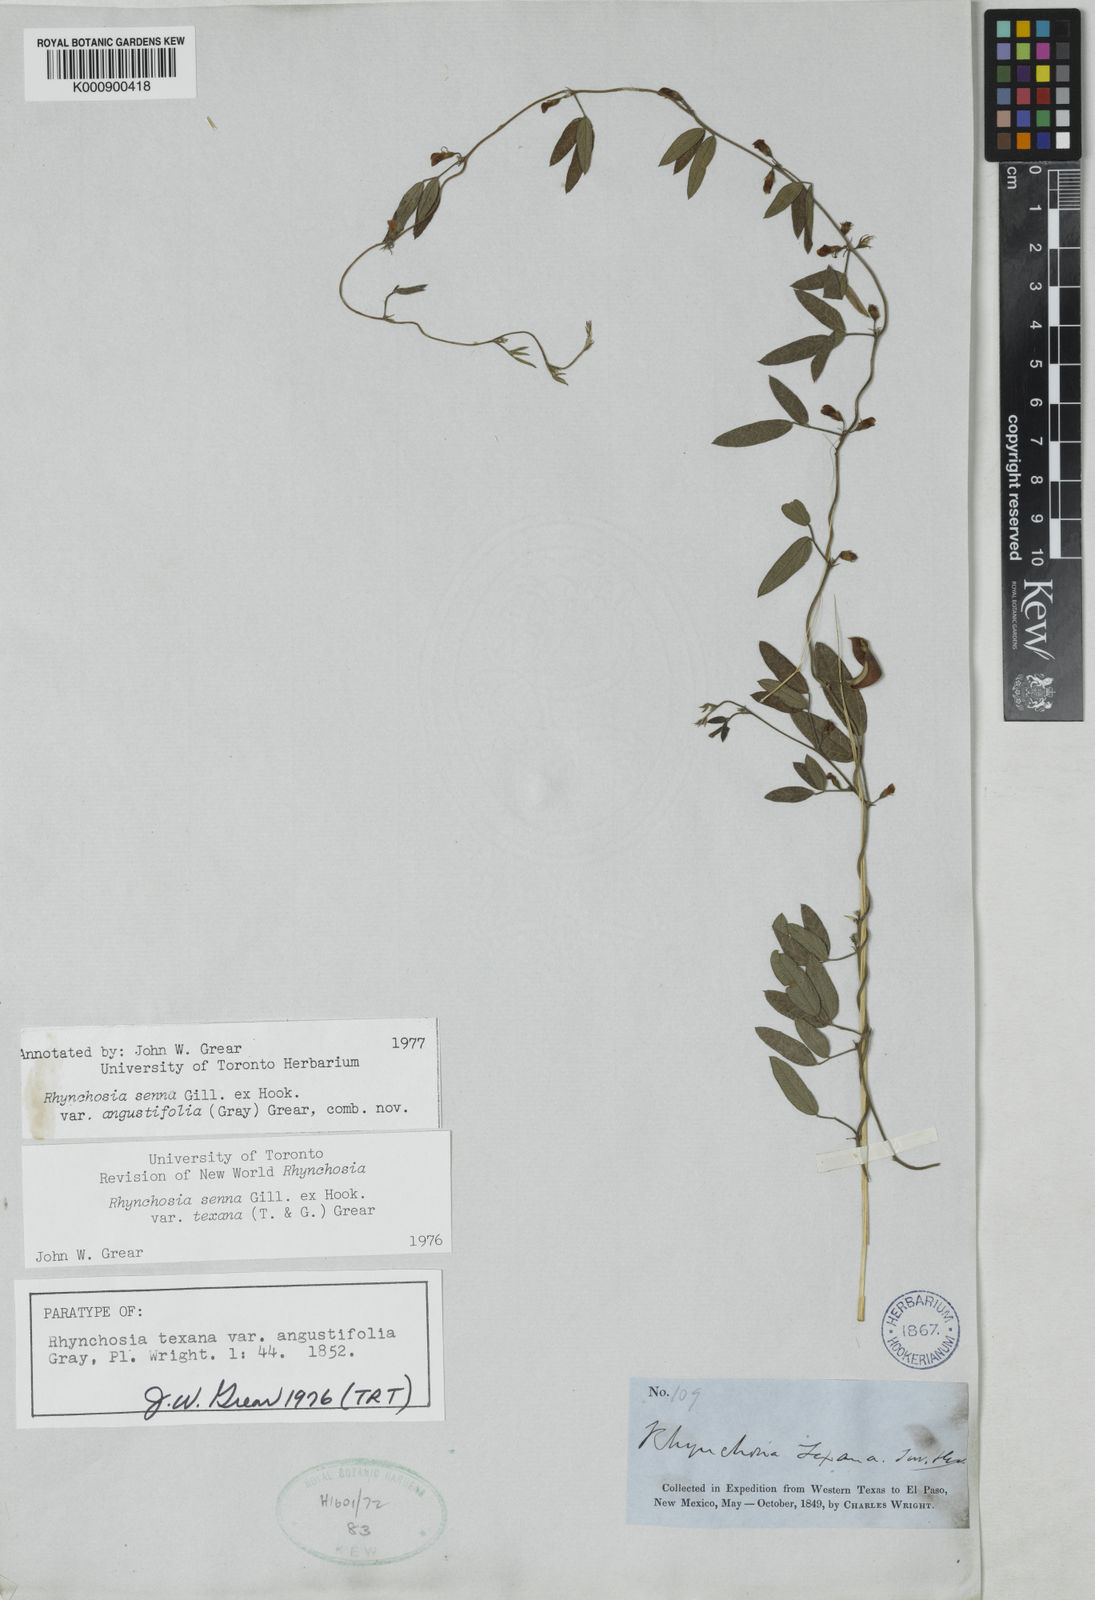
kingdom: Plantae
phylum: Tracheophyta
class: Magnoliopsida
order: Fabales
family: Fabaceae
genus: Rhynchosia
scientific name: Rhynchosia senna
